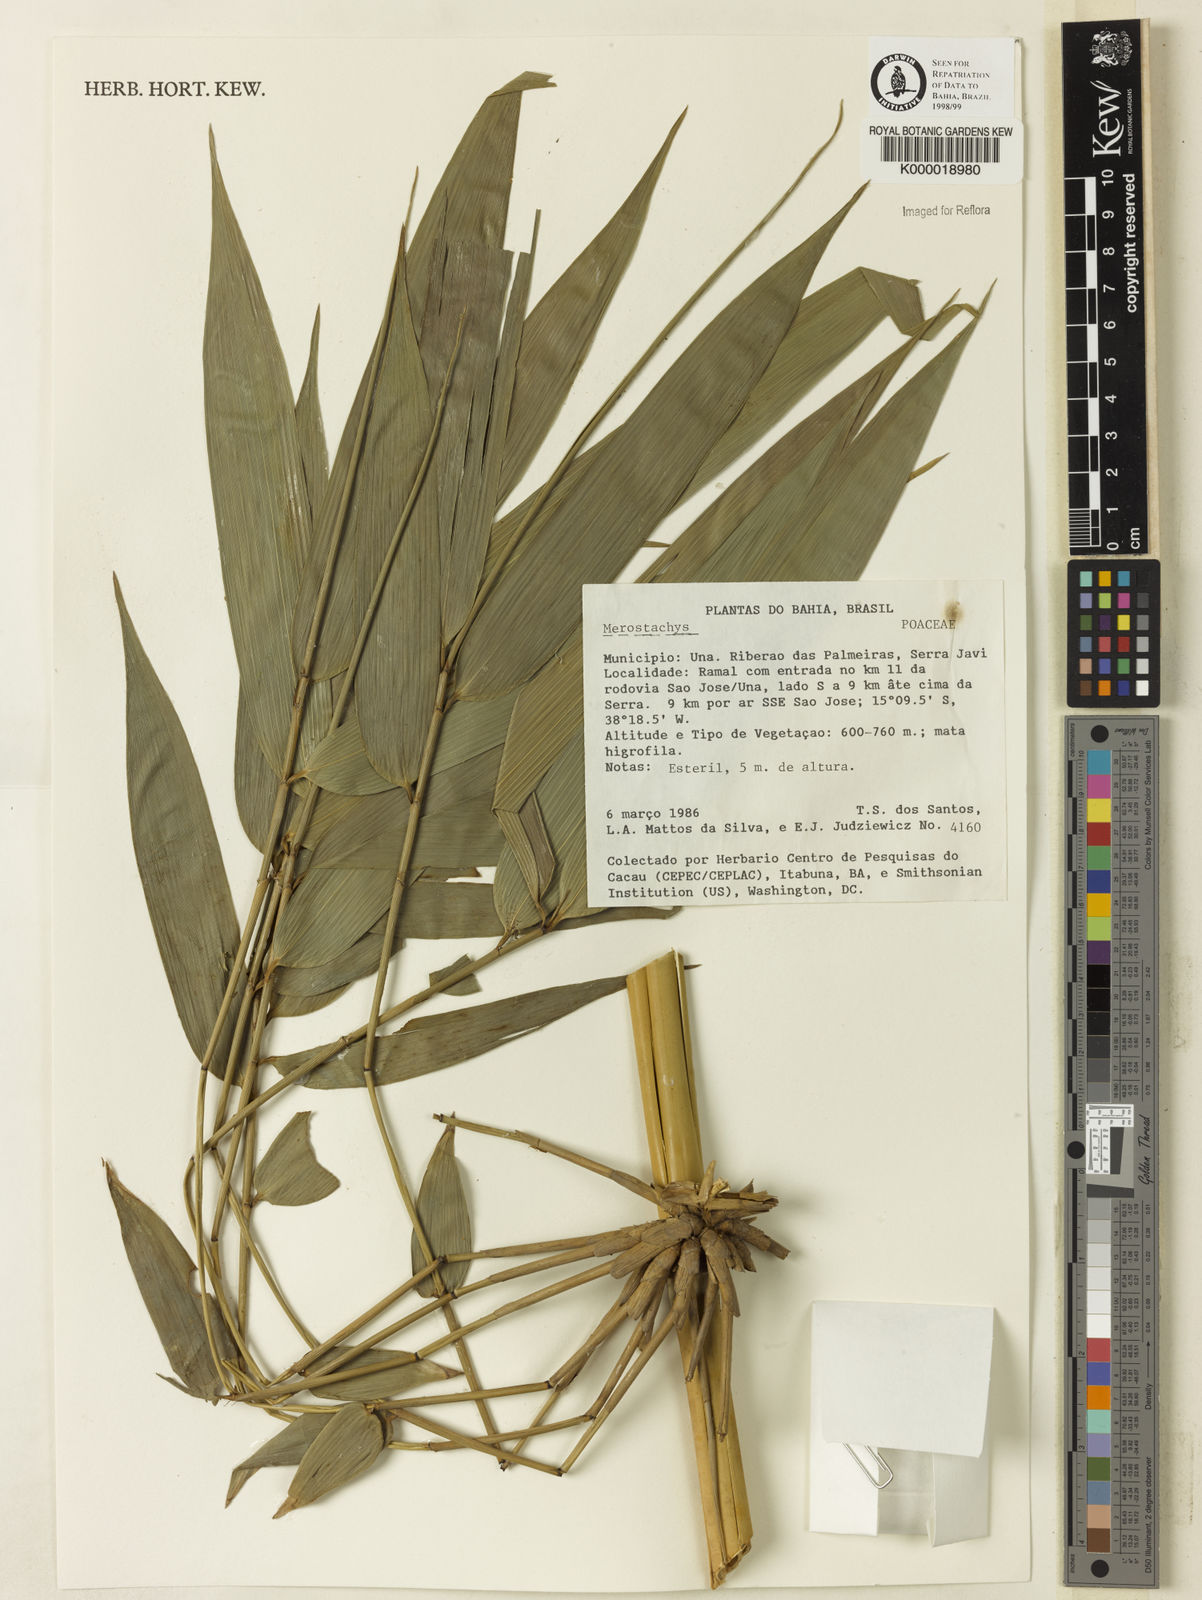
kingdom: Plantae
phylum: Tracheophyta
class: Liliopsida
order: Poales
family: Poaceae
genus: Merostachys
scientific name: Merostachys
